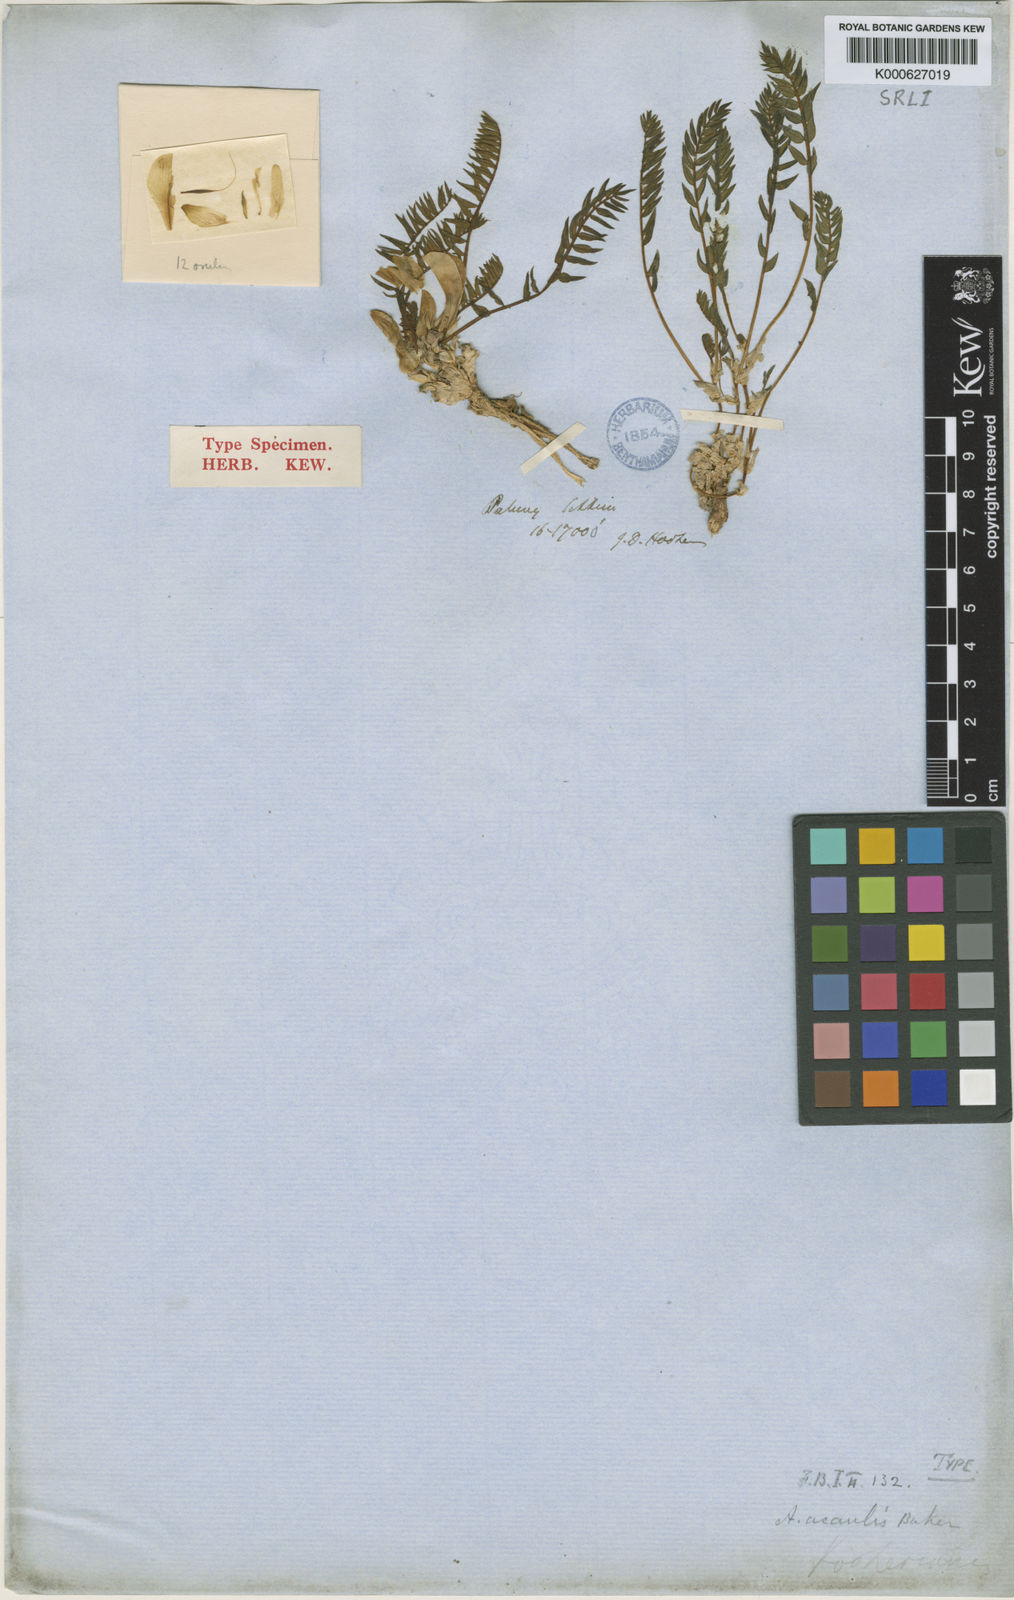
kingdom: Plantae
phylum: Tracheophyta
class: Magnoliopsida
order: Fabales
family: Fabaceae
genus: Astragalus
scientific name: Astragalus
